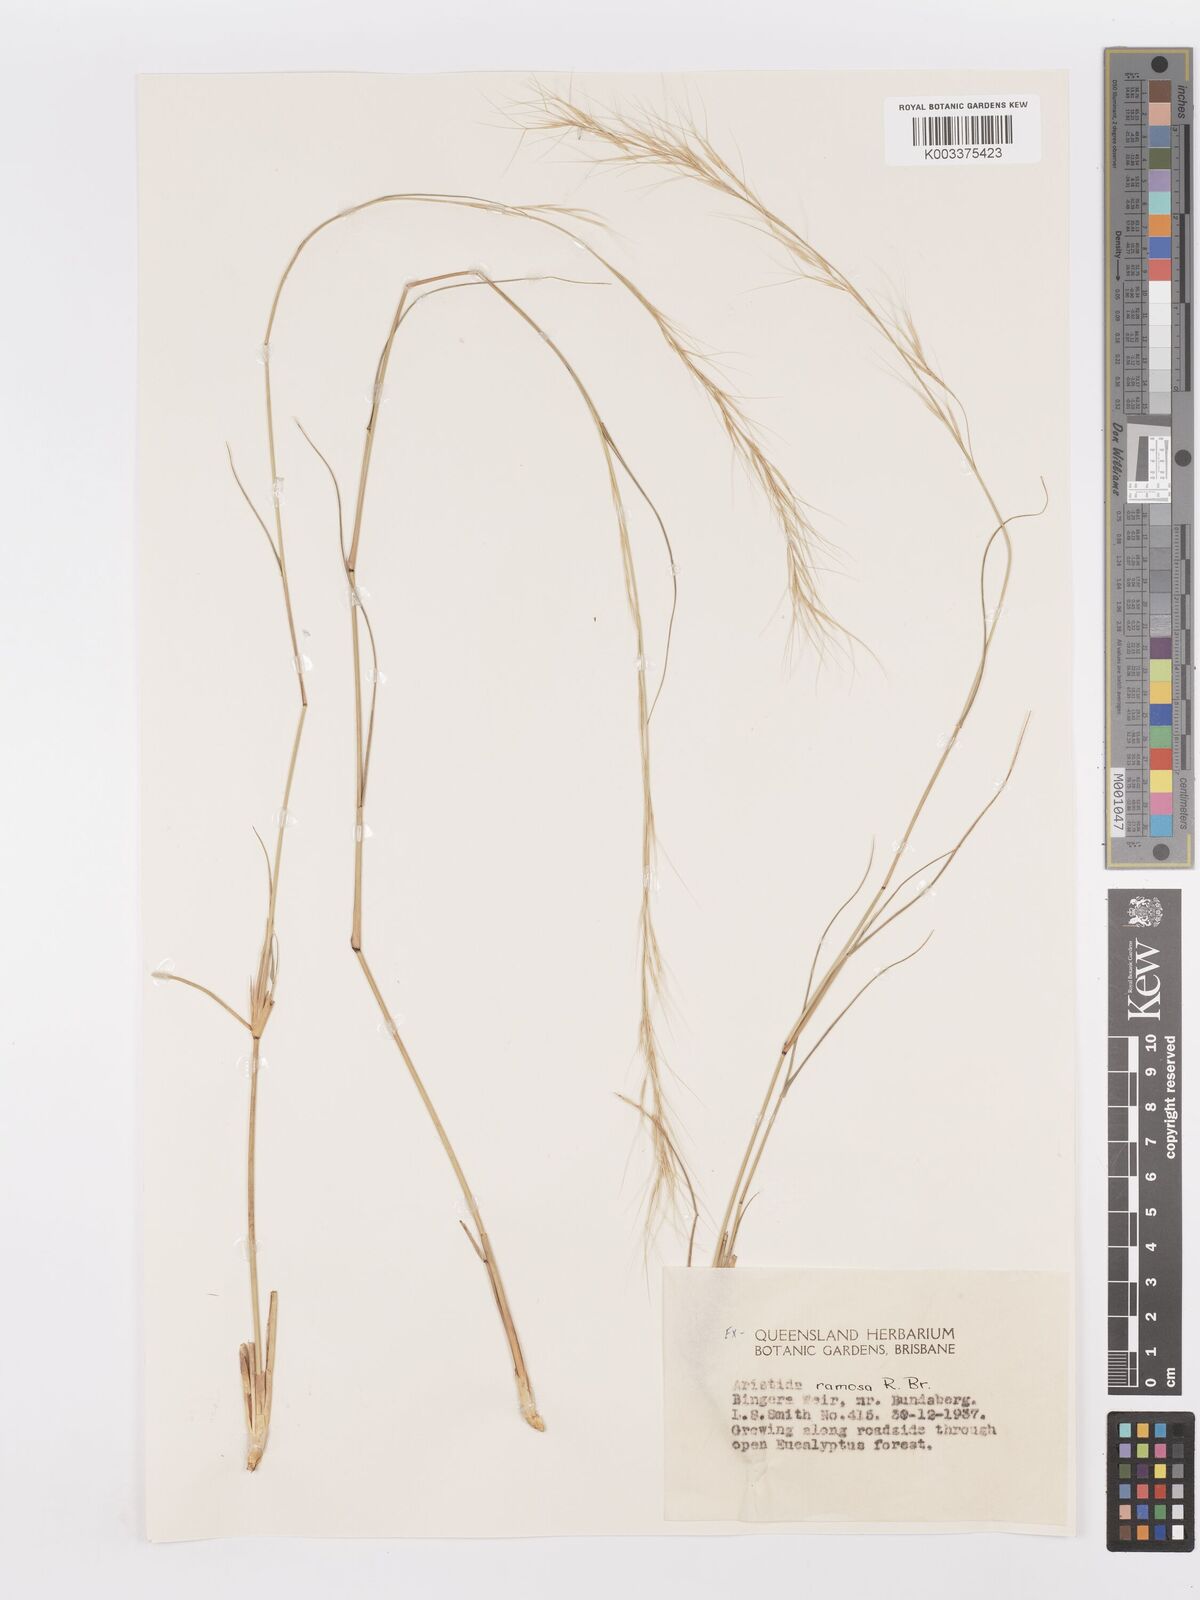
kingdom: Plantae
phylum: Tracheophyta
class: Liliopsida
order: Poales
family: Poaceae
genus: Aristida
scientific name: Aristida ramosa
